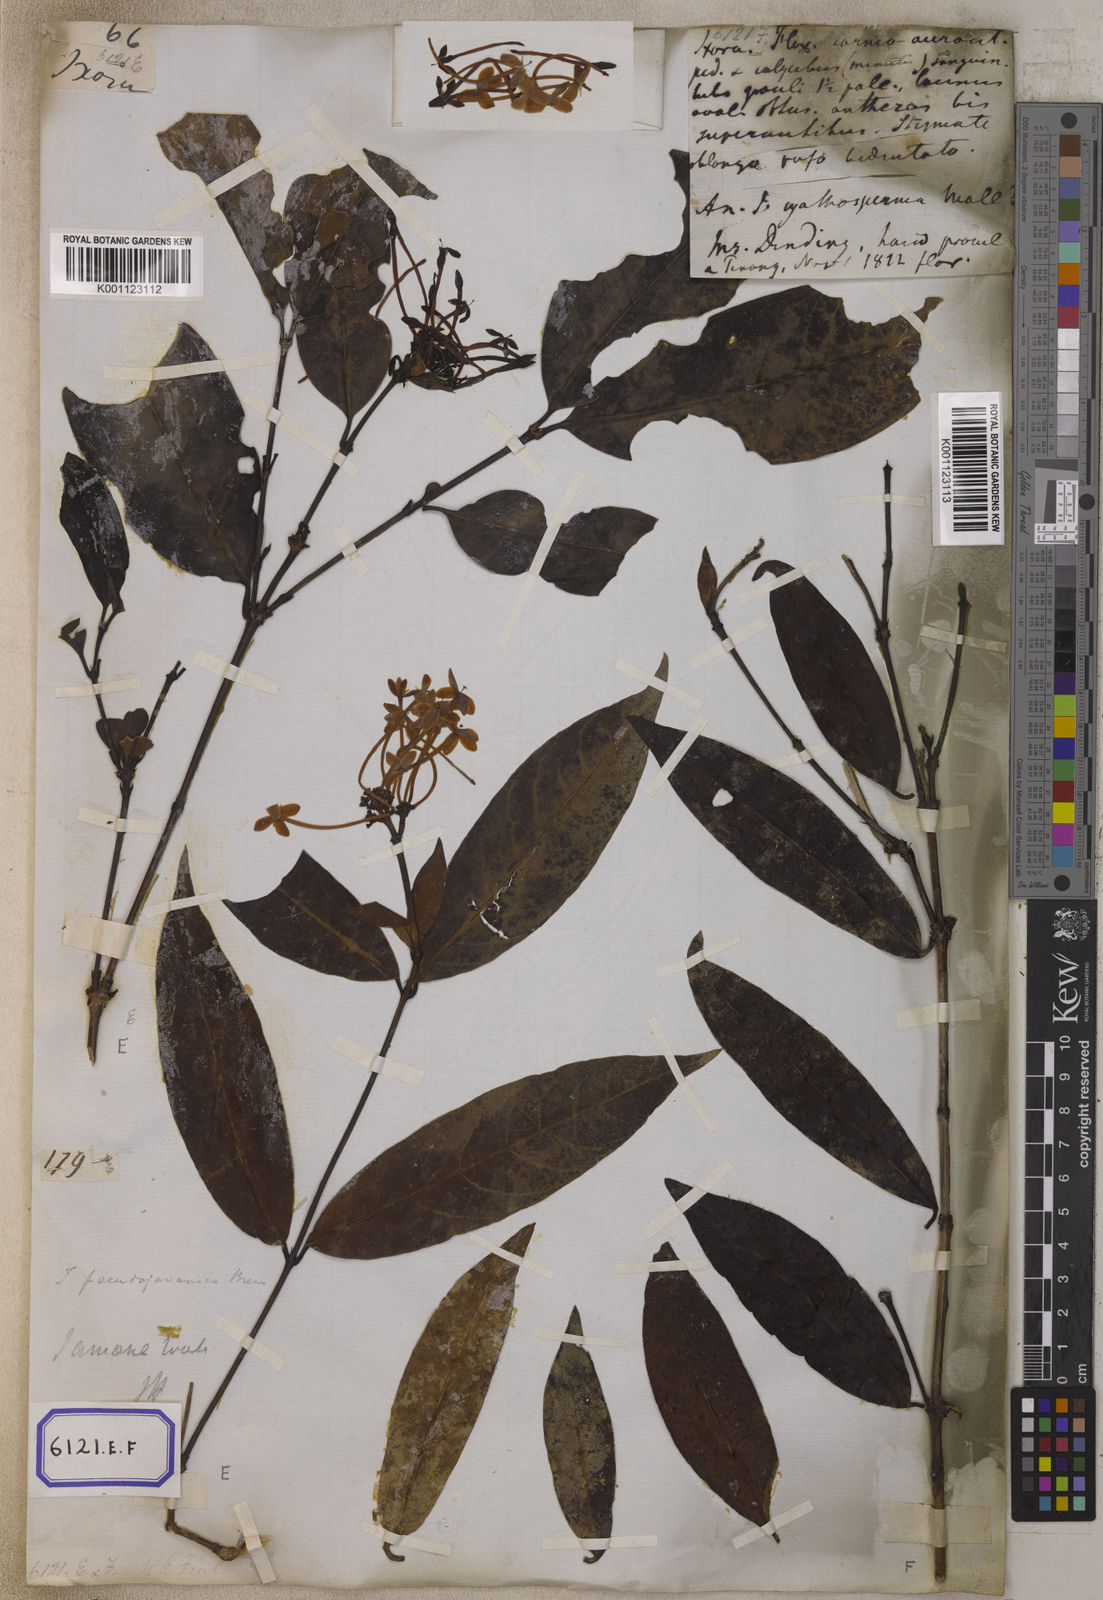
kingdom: Plantae
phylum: Tracheophyta
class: Magnoliopsida
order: Gentianales
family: Rubiaceae
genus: Ixora
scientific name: Ixora
